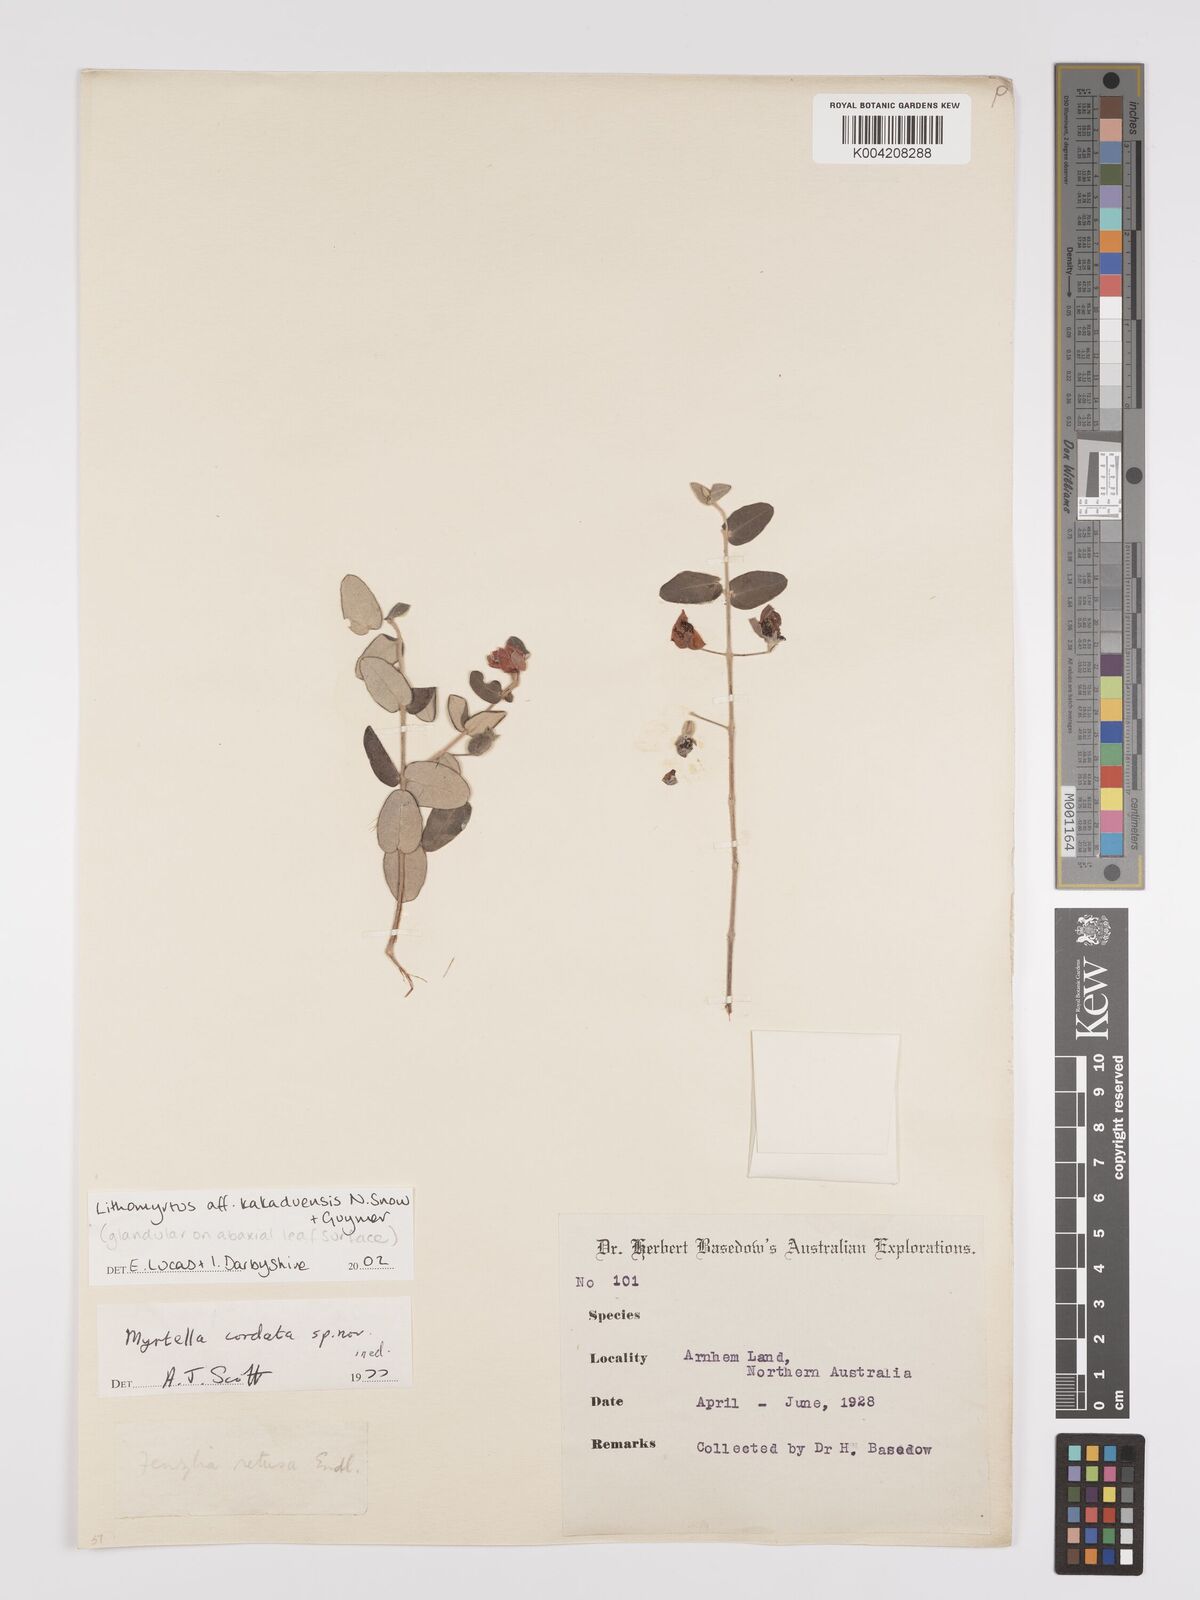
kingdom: Plantae
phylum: Tracheophyta
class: Magnoliopsida
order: Myrtales
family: Myrtaceae
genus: Lithomyrtus
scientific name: Lithomyrtus kakaduensis
